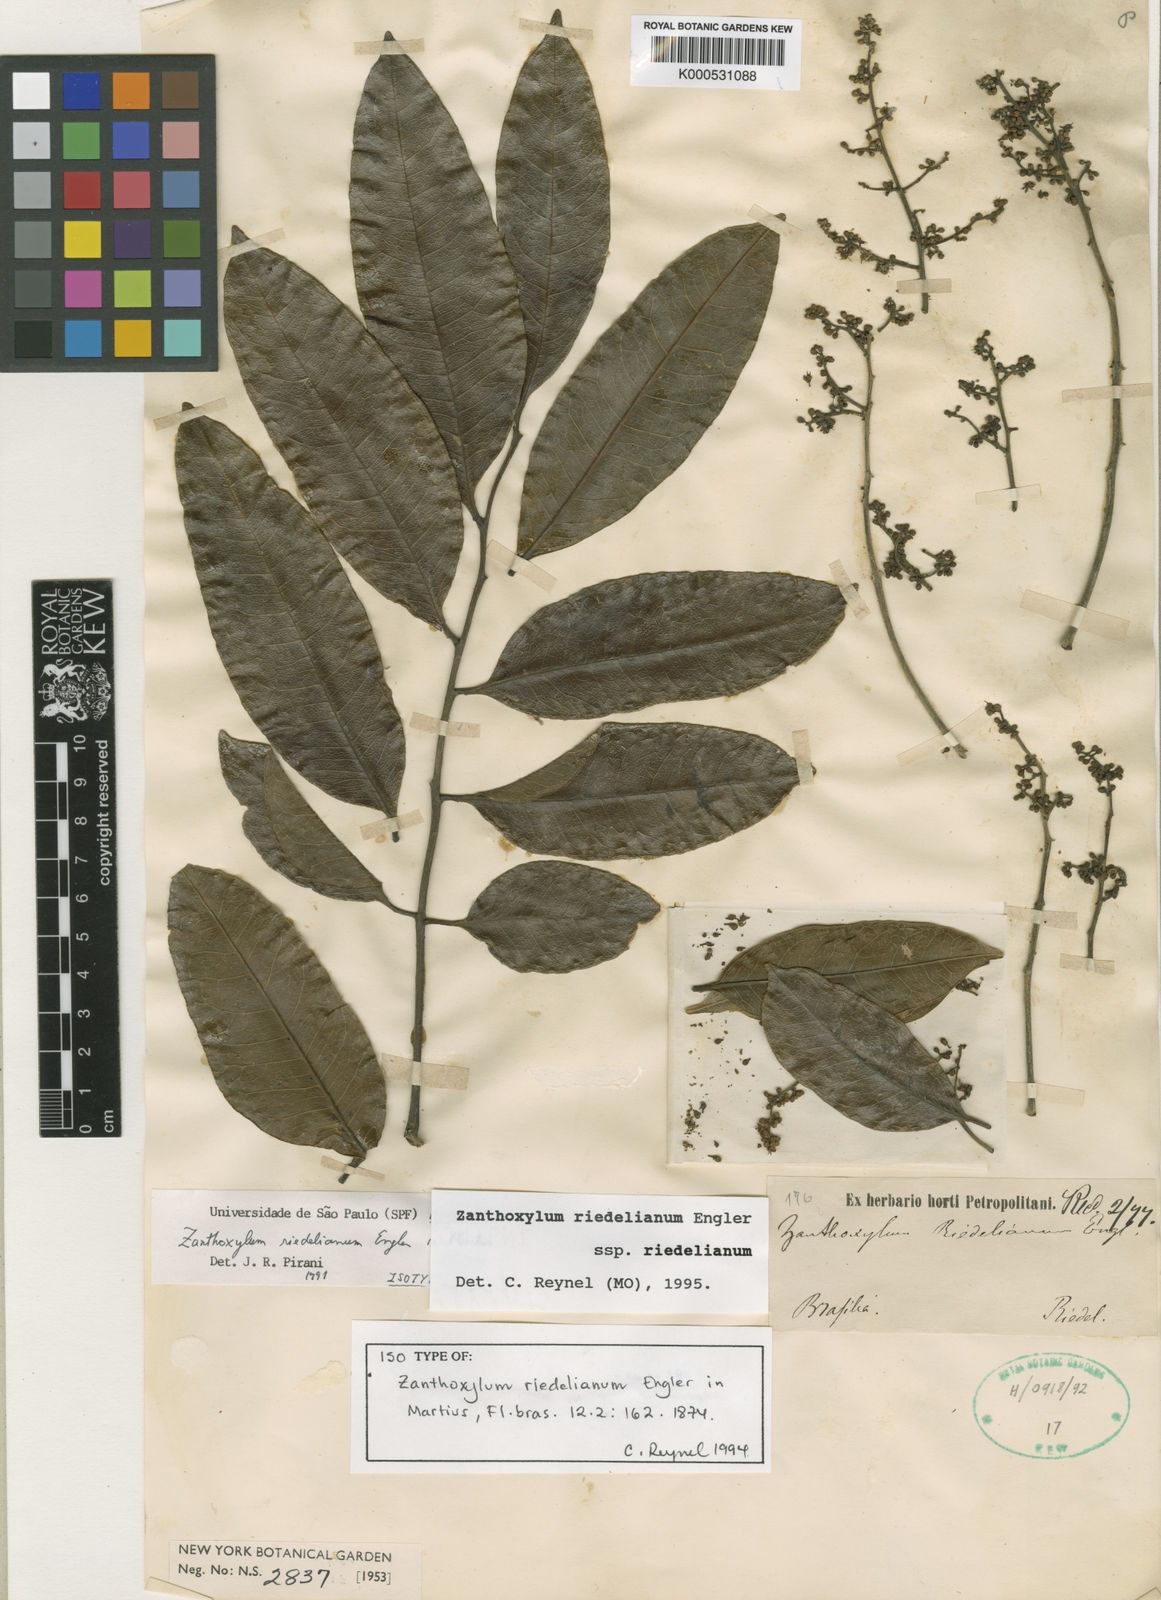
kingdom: Plantae
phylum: Tracheophyta
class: Magnoliopsida
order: Sapindales
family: Rutaceae
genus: Zanthoxylum
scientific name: Zanthoxylum riedelianum
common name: White copal
